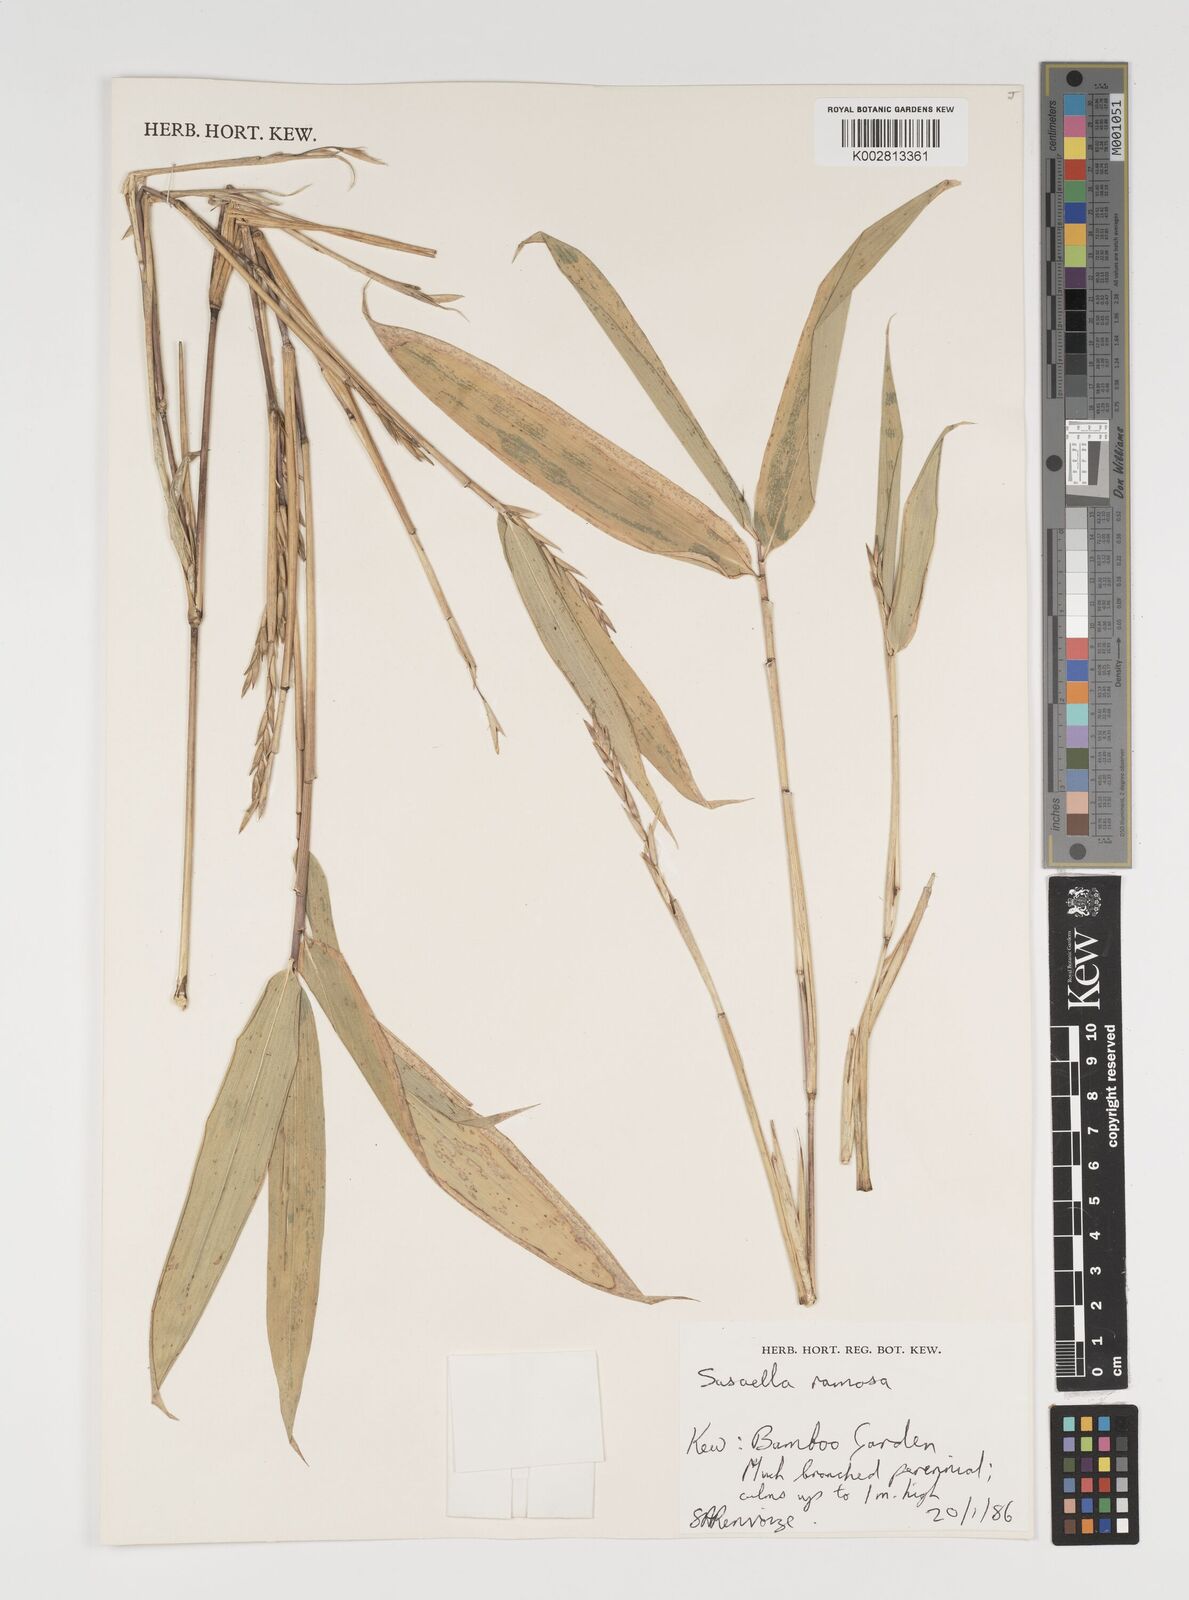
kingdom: Plantae
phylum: Tracheophyta
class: Liliopsida
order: Poales
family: Poaceae
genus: Sasaella
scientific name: Sasaella ramosa
